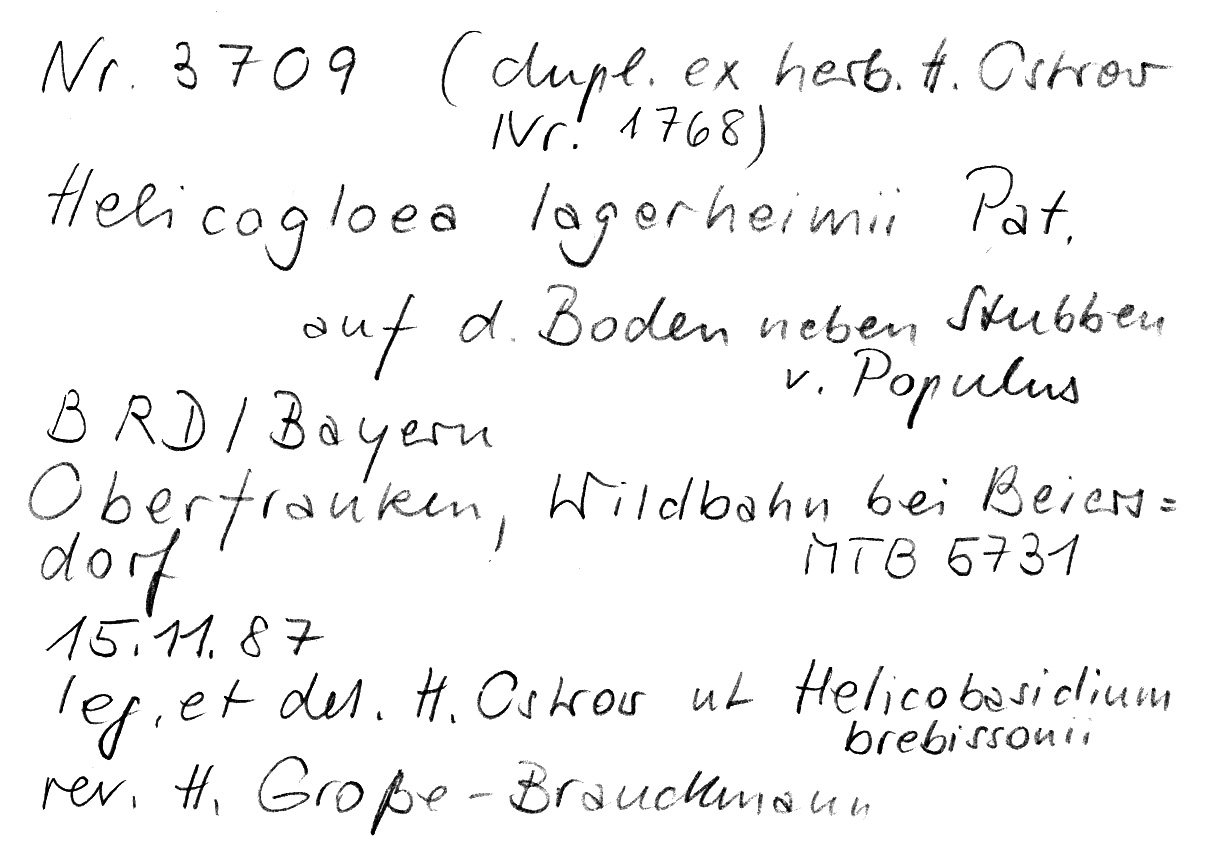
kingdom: Fungi
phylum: Basidiomycota
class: Atractiellomycetes
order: Atractiellales
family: Phleogenaceae
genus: Helicogloea
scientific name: Helicogloea lagerheimii
